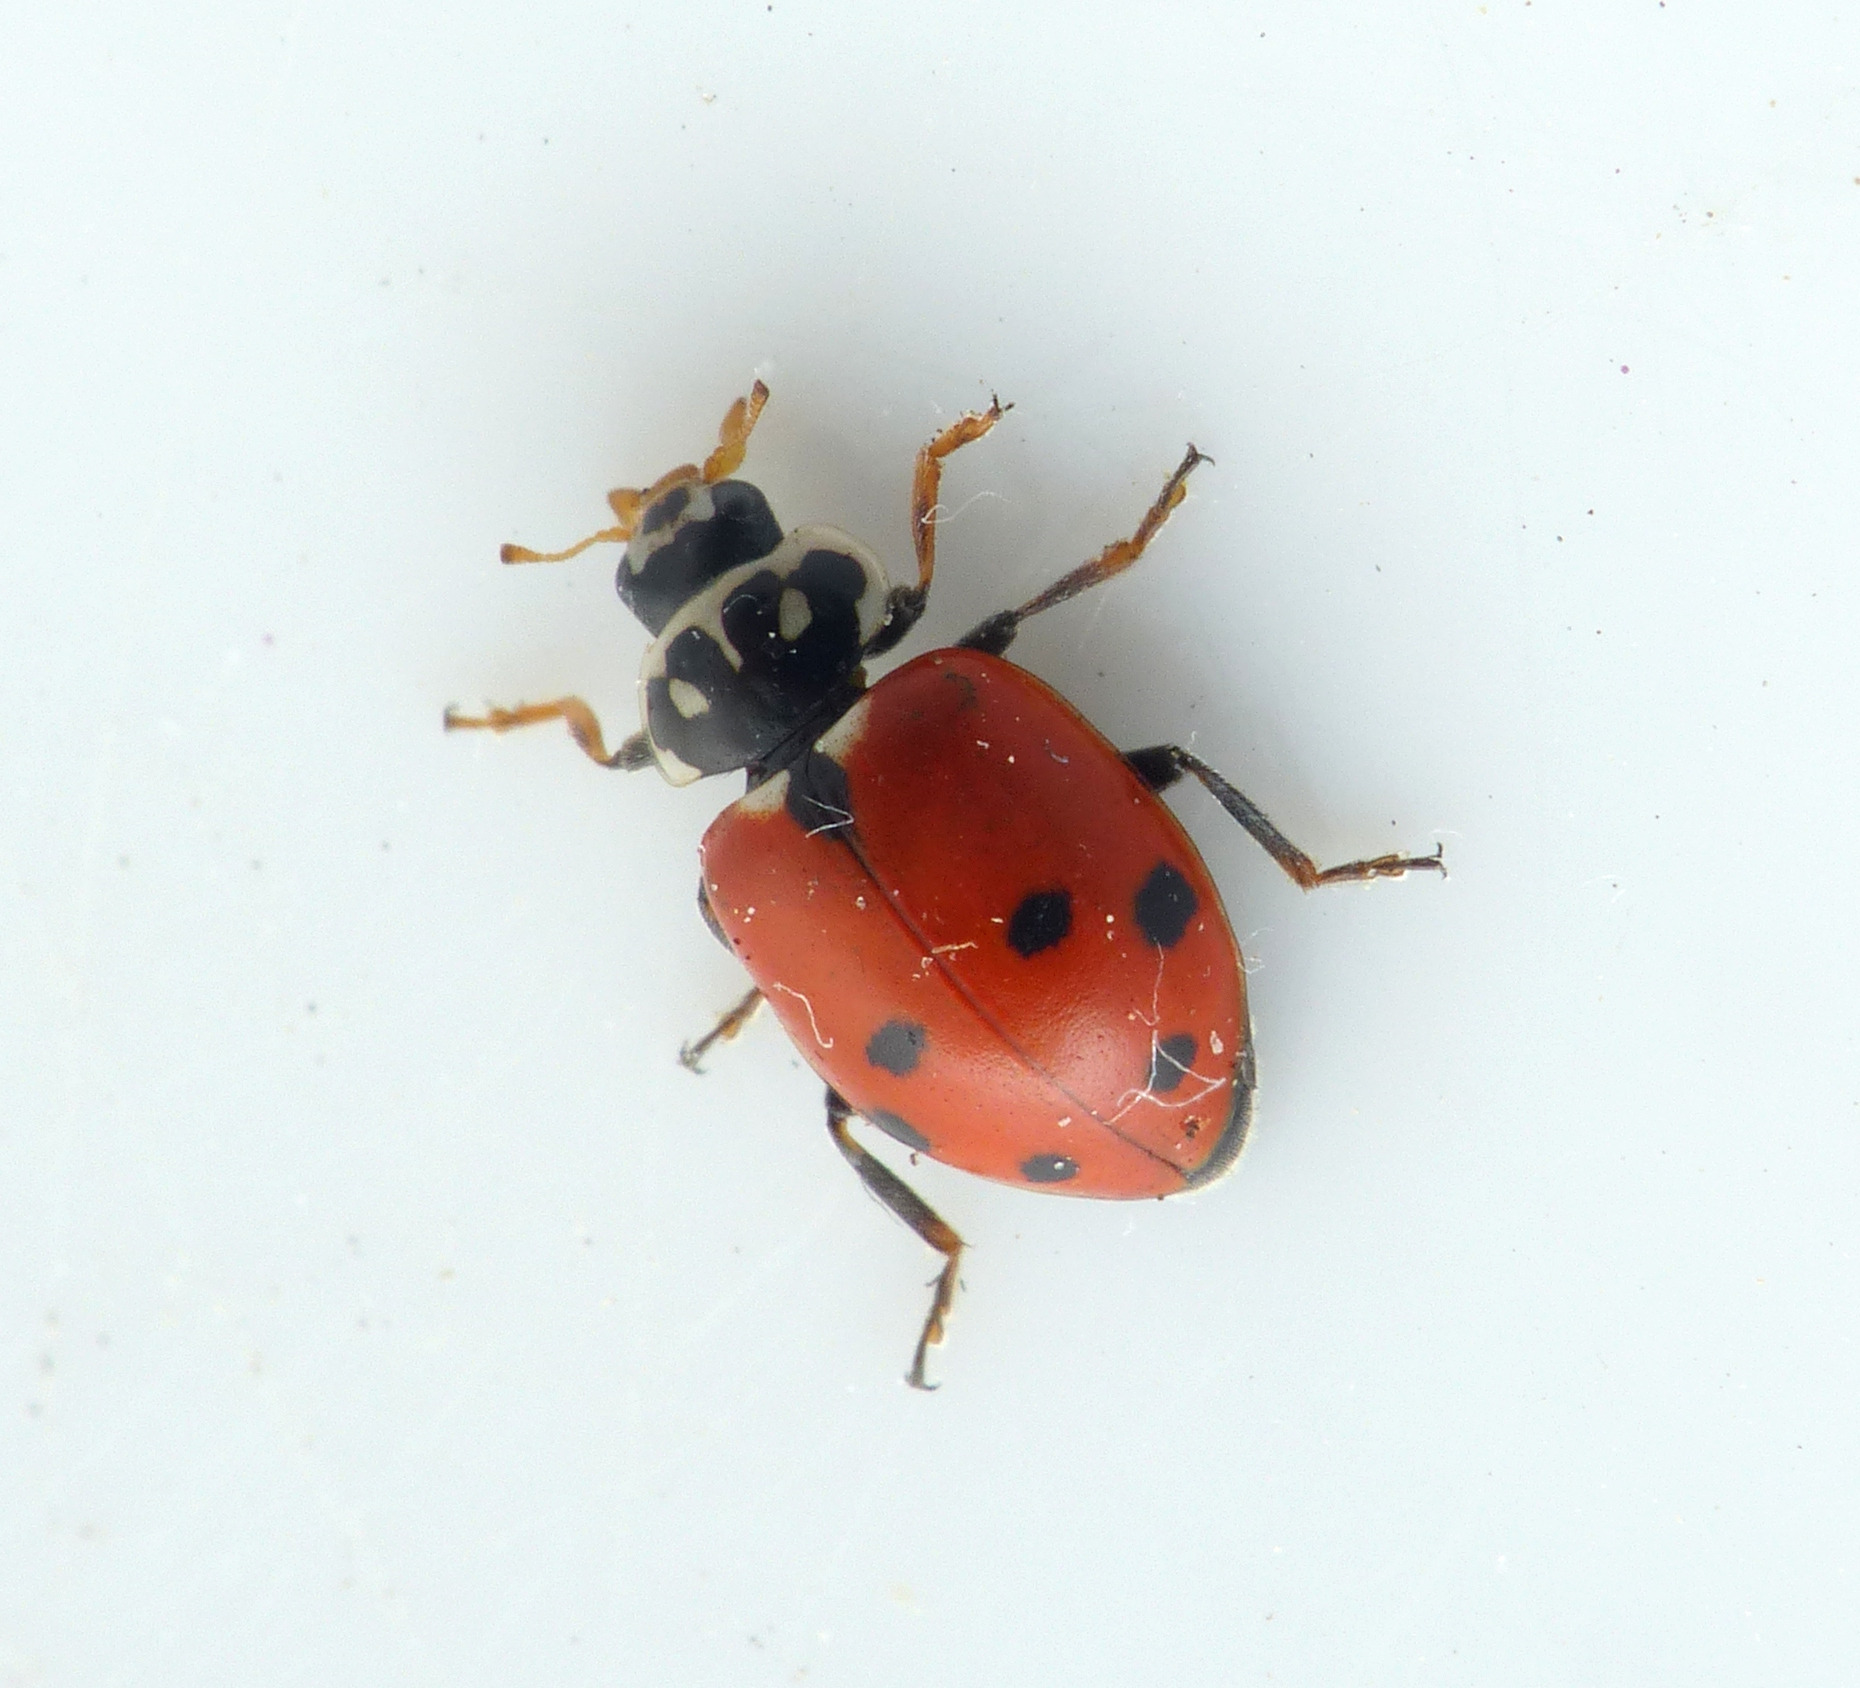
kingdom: Animalia
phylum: Arthropoda
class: Insecta
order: Coleoptera
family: Coccinellidae
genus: Hippodamia
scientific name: Hippodamia variegata
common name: Adonis' mariehøne
